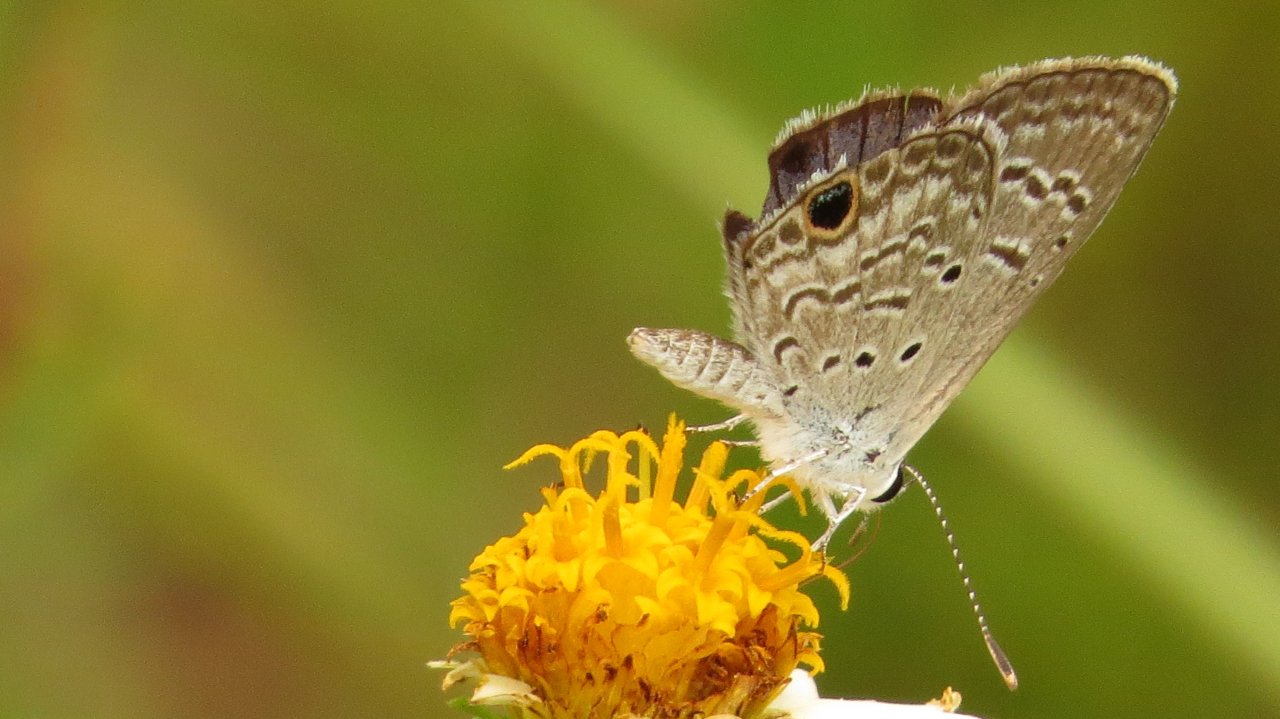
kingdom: Animalia
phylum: Arthropoda
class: Insecta
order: Lepidoptera
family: Lycaenidae
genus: Hemiargus
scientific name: Hemiargus ceraunus
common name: Ceraunus Blue
